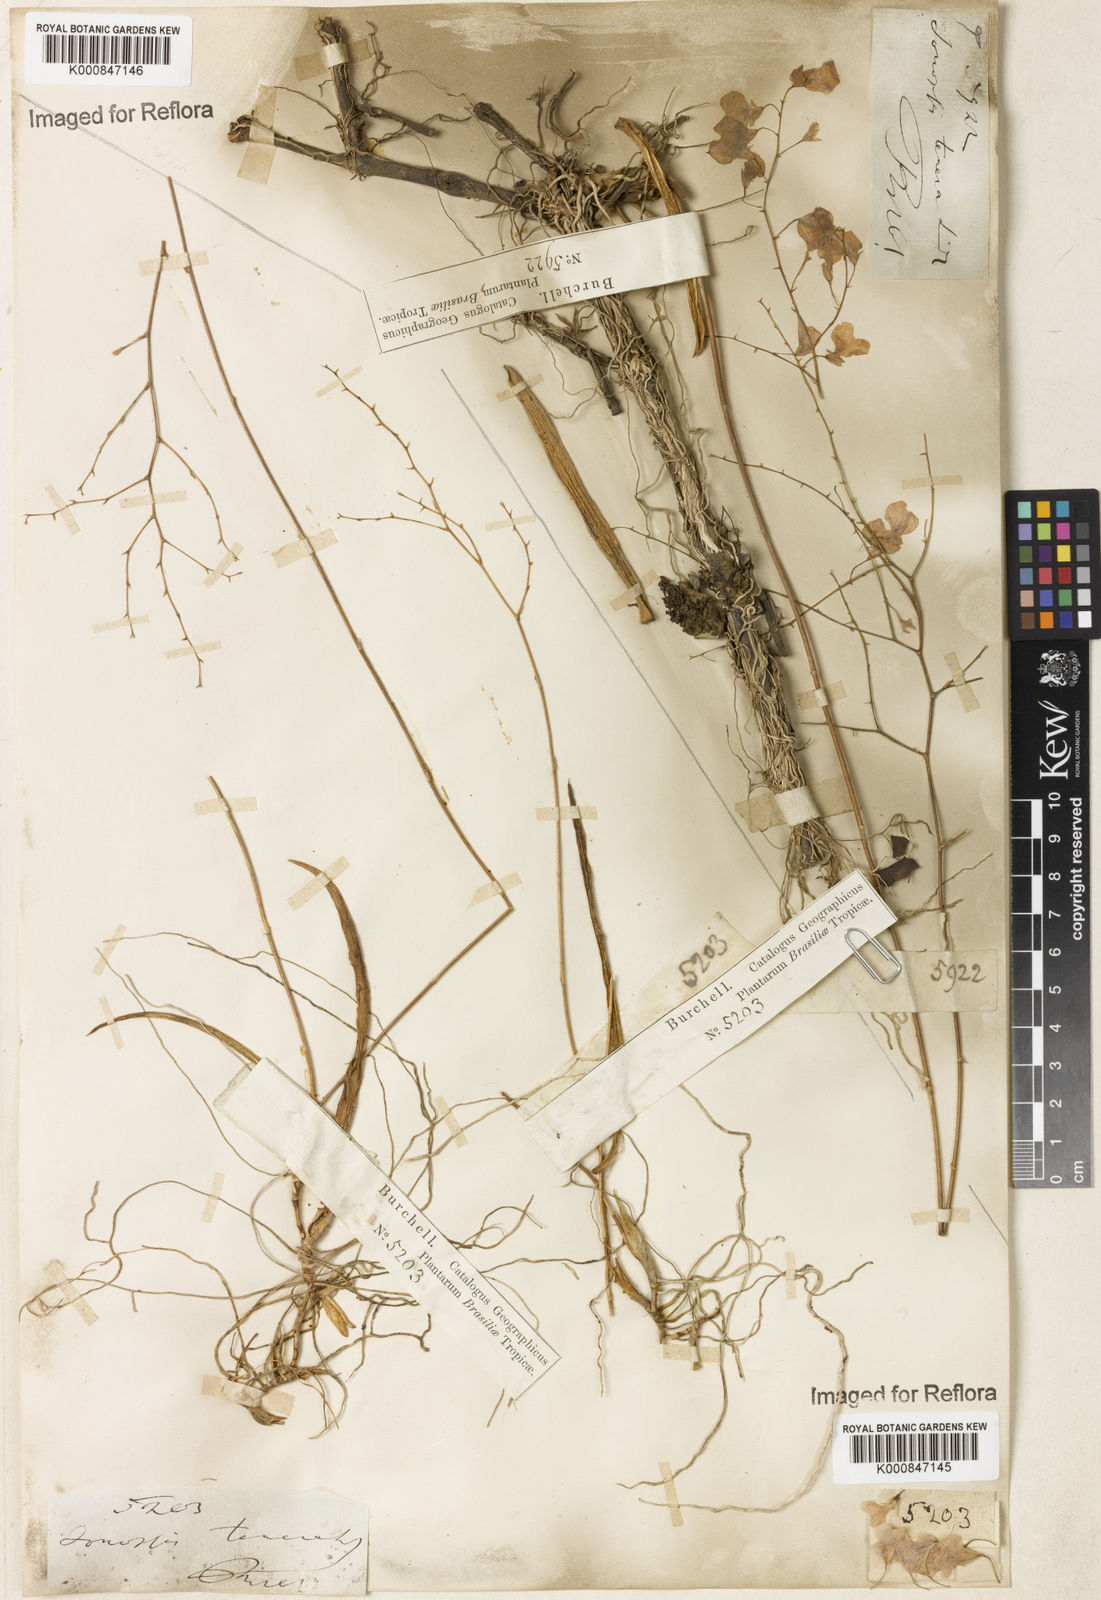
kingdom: Plantae
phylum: Tracheophyta
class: Liliopsida
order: Asparagales
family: Orchidaceae
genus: Ionopsis
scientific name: Ionopsis utricularioides
